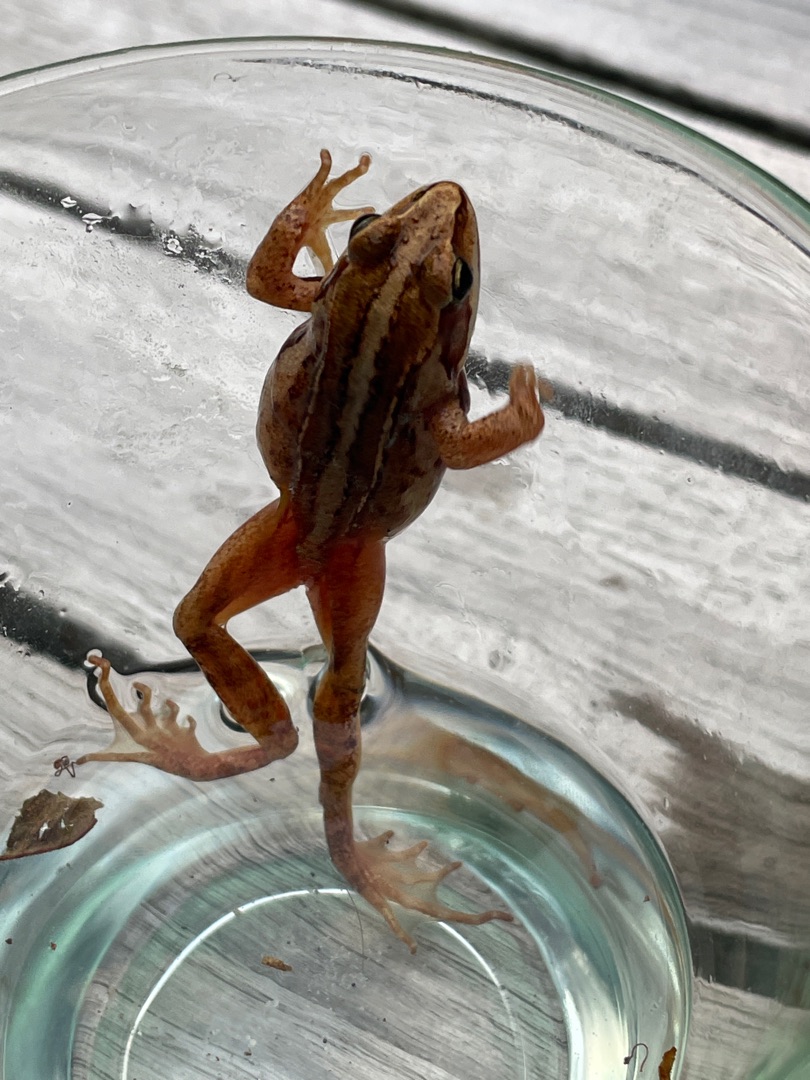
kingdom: Animalia
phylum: Chordata
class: Amphibia
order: Anura
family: Ranidae
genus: Rana
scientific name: Rana arvalis
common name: Spidssnudet frø
